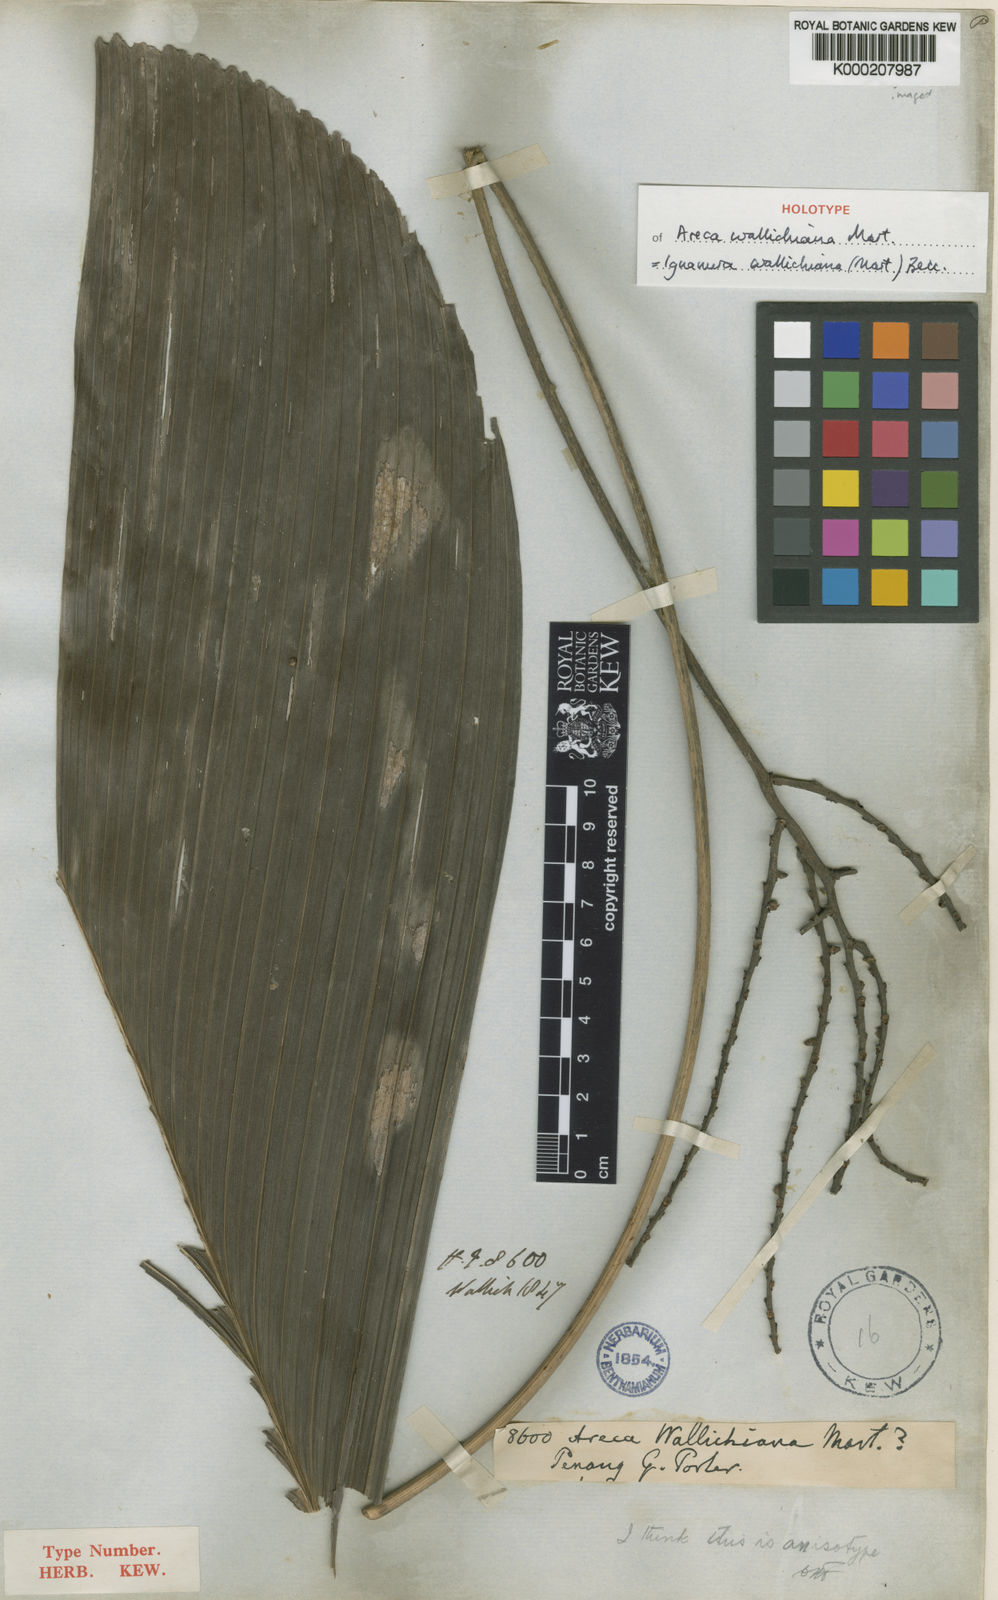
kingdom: Plantae
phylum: Tracheophyta
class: Liliopsida
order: Arecales
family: Arecaceae
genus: Iguanura
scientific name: Iguanura wallichiana
